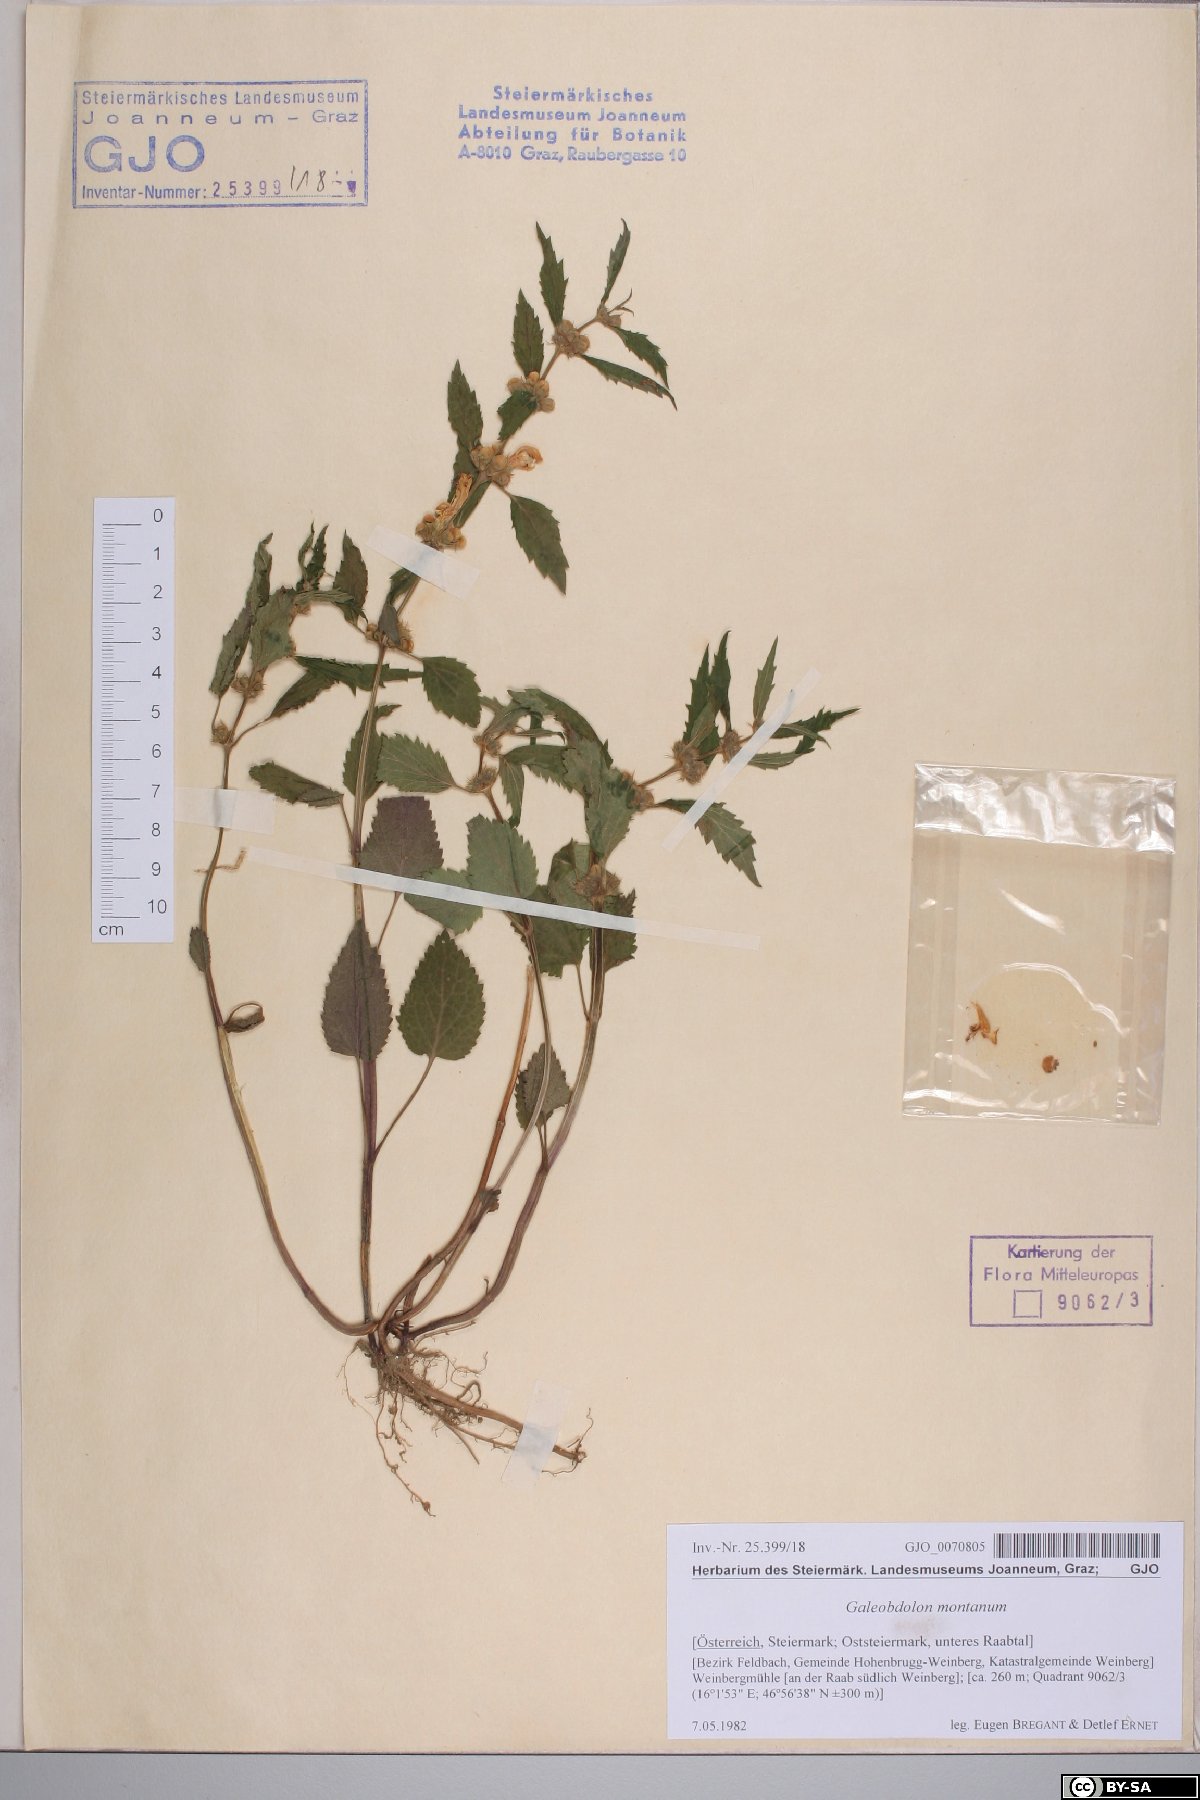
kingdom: Plantae
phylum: Tracheophyta
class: Magnoliopsida
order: Lamiales
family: Lamiaceae
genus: Lamium
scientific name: Lamium galeobdolon
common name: Yellow archangel
